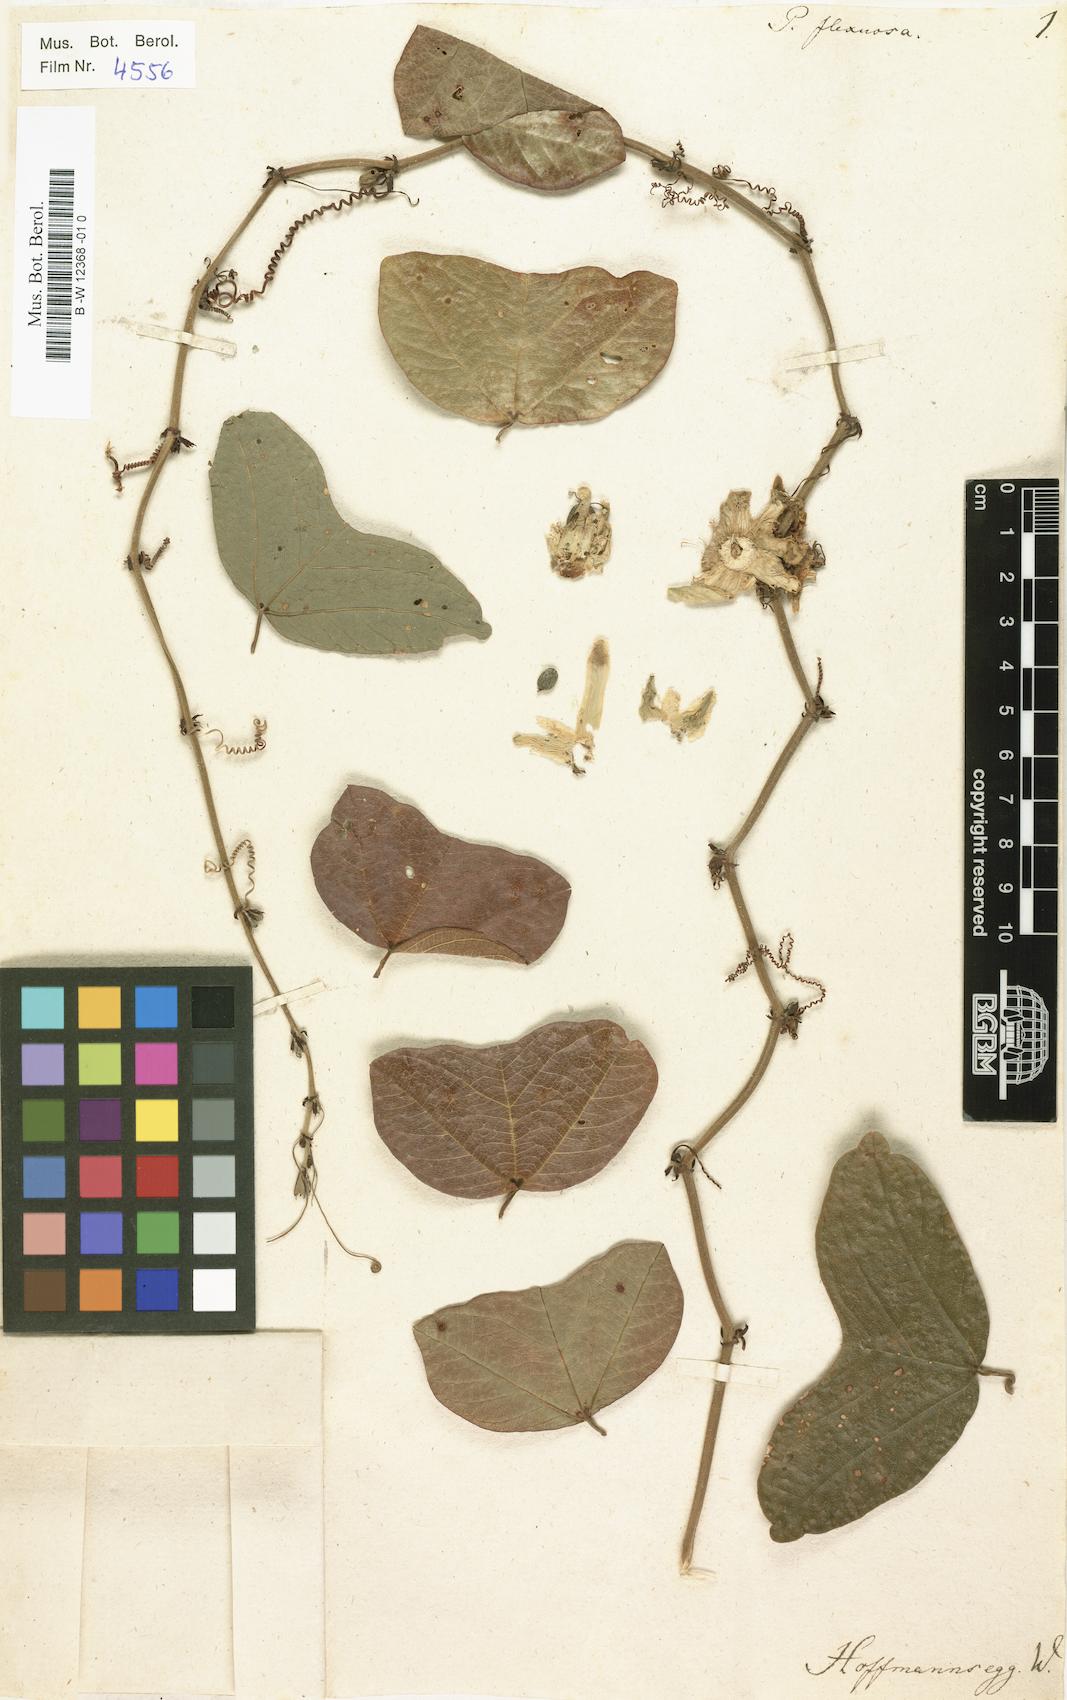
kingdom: Plantae
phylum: Tracheophyta
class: Magnoliopsida
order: Malpighiales
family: Passifloraceae
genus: Passiflora
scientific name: Passiflora suberosa
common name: Wild passionfruit
